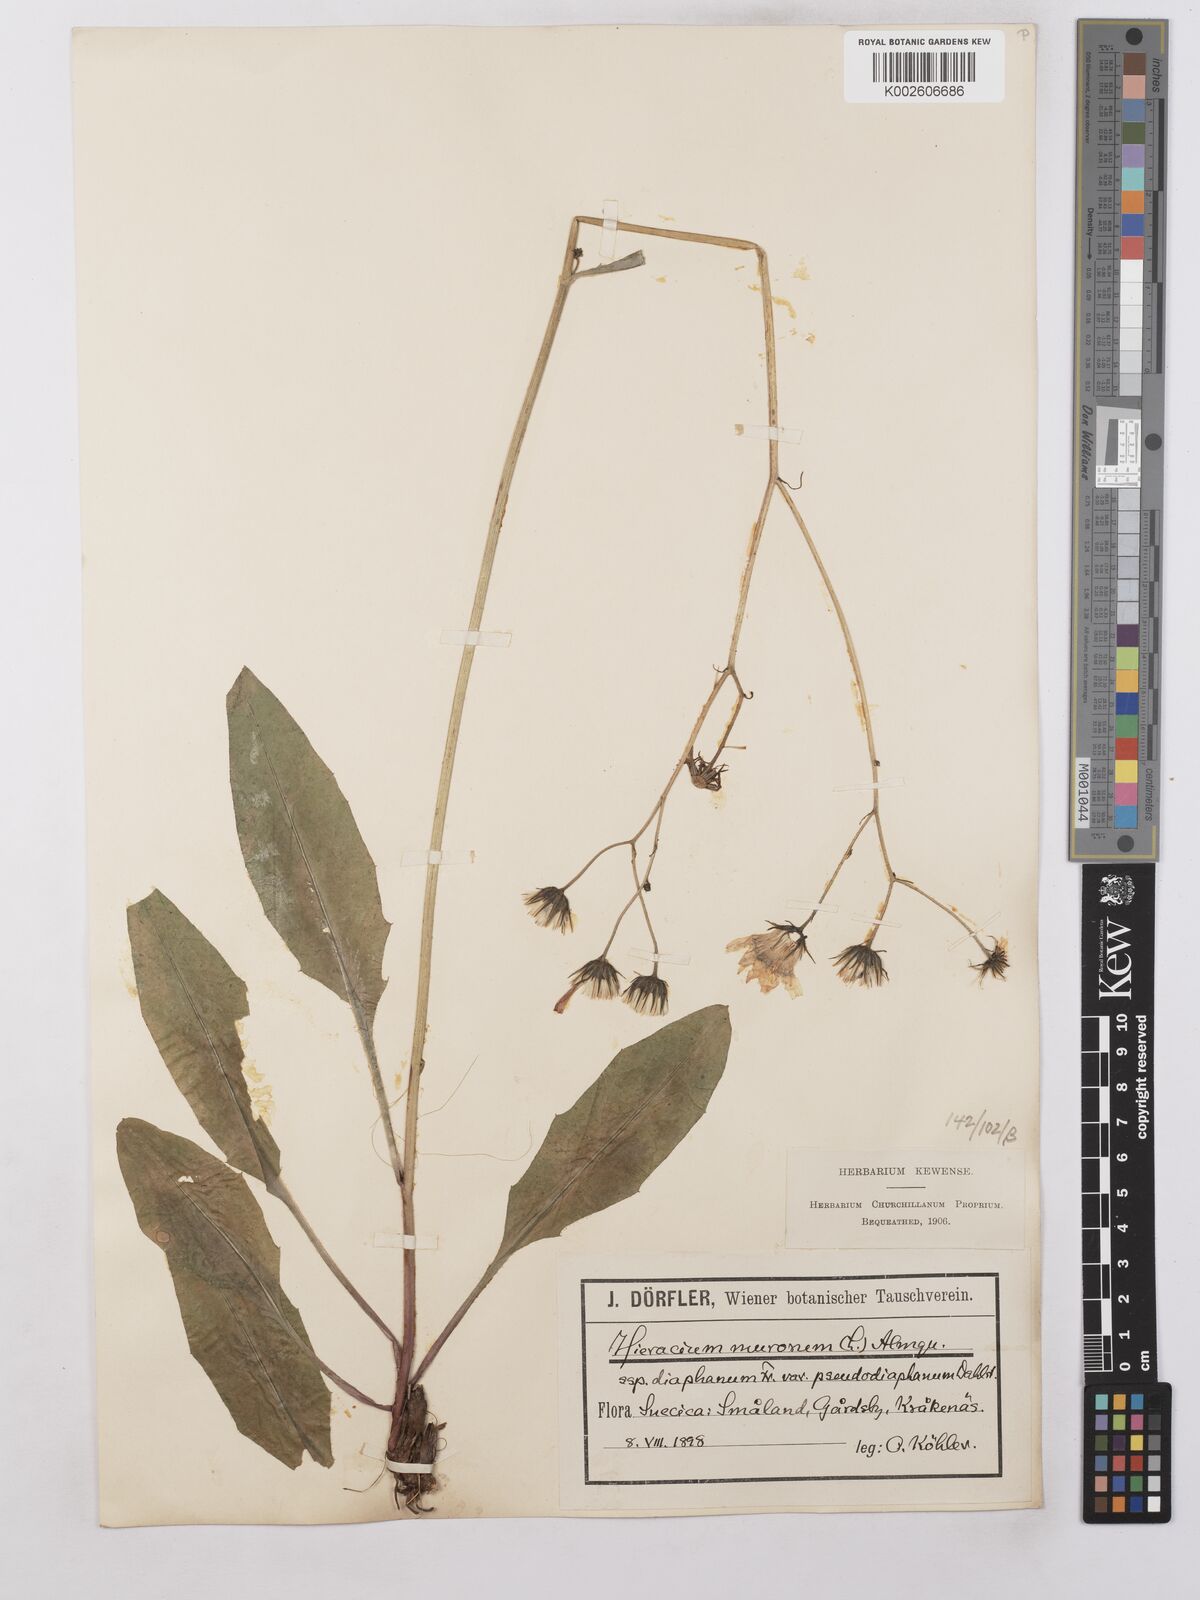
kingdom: Plantae
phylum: Tracheophyta
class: Magnoliopsida
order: Asterales
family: Asteraceae
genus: Hieracium
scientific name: Hieracium lachenalii
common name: Common hawkweed
